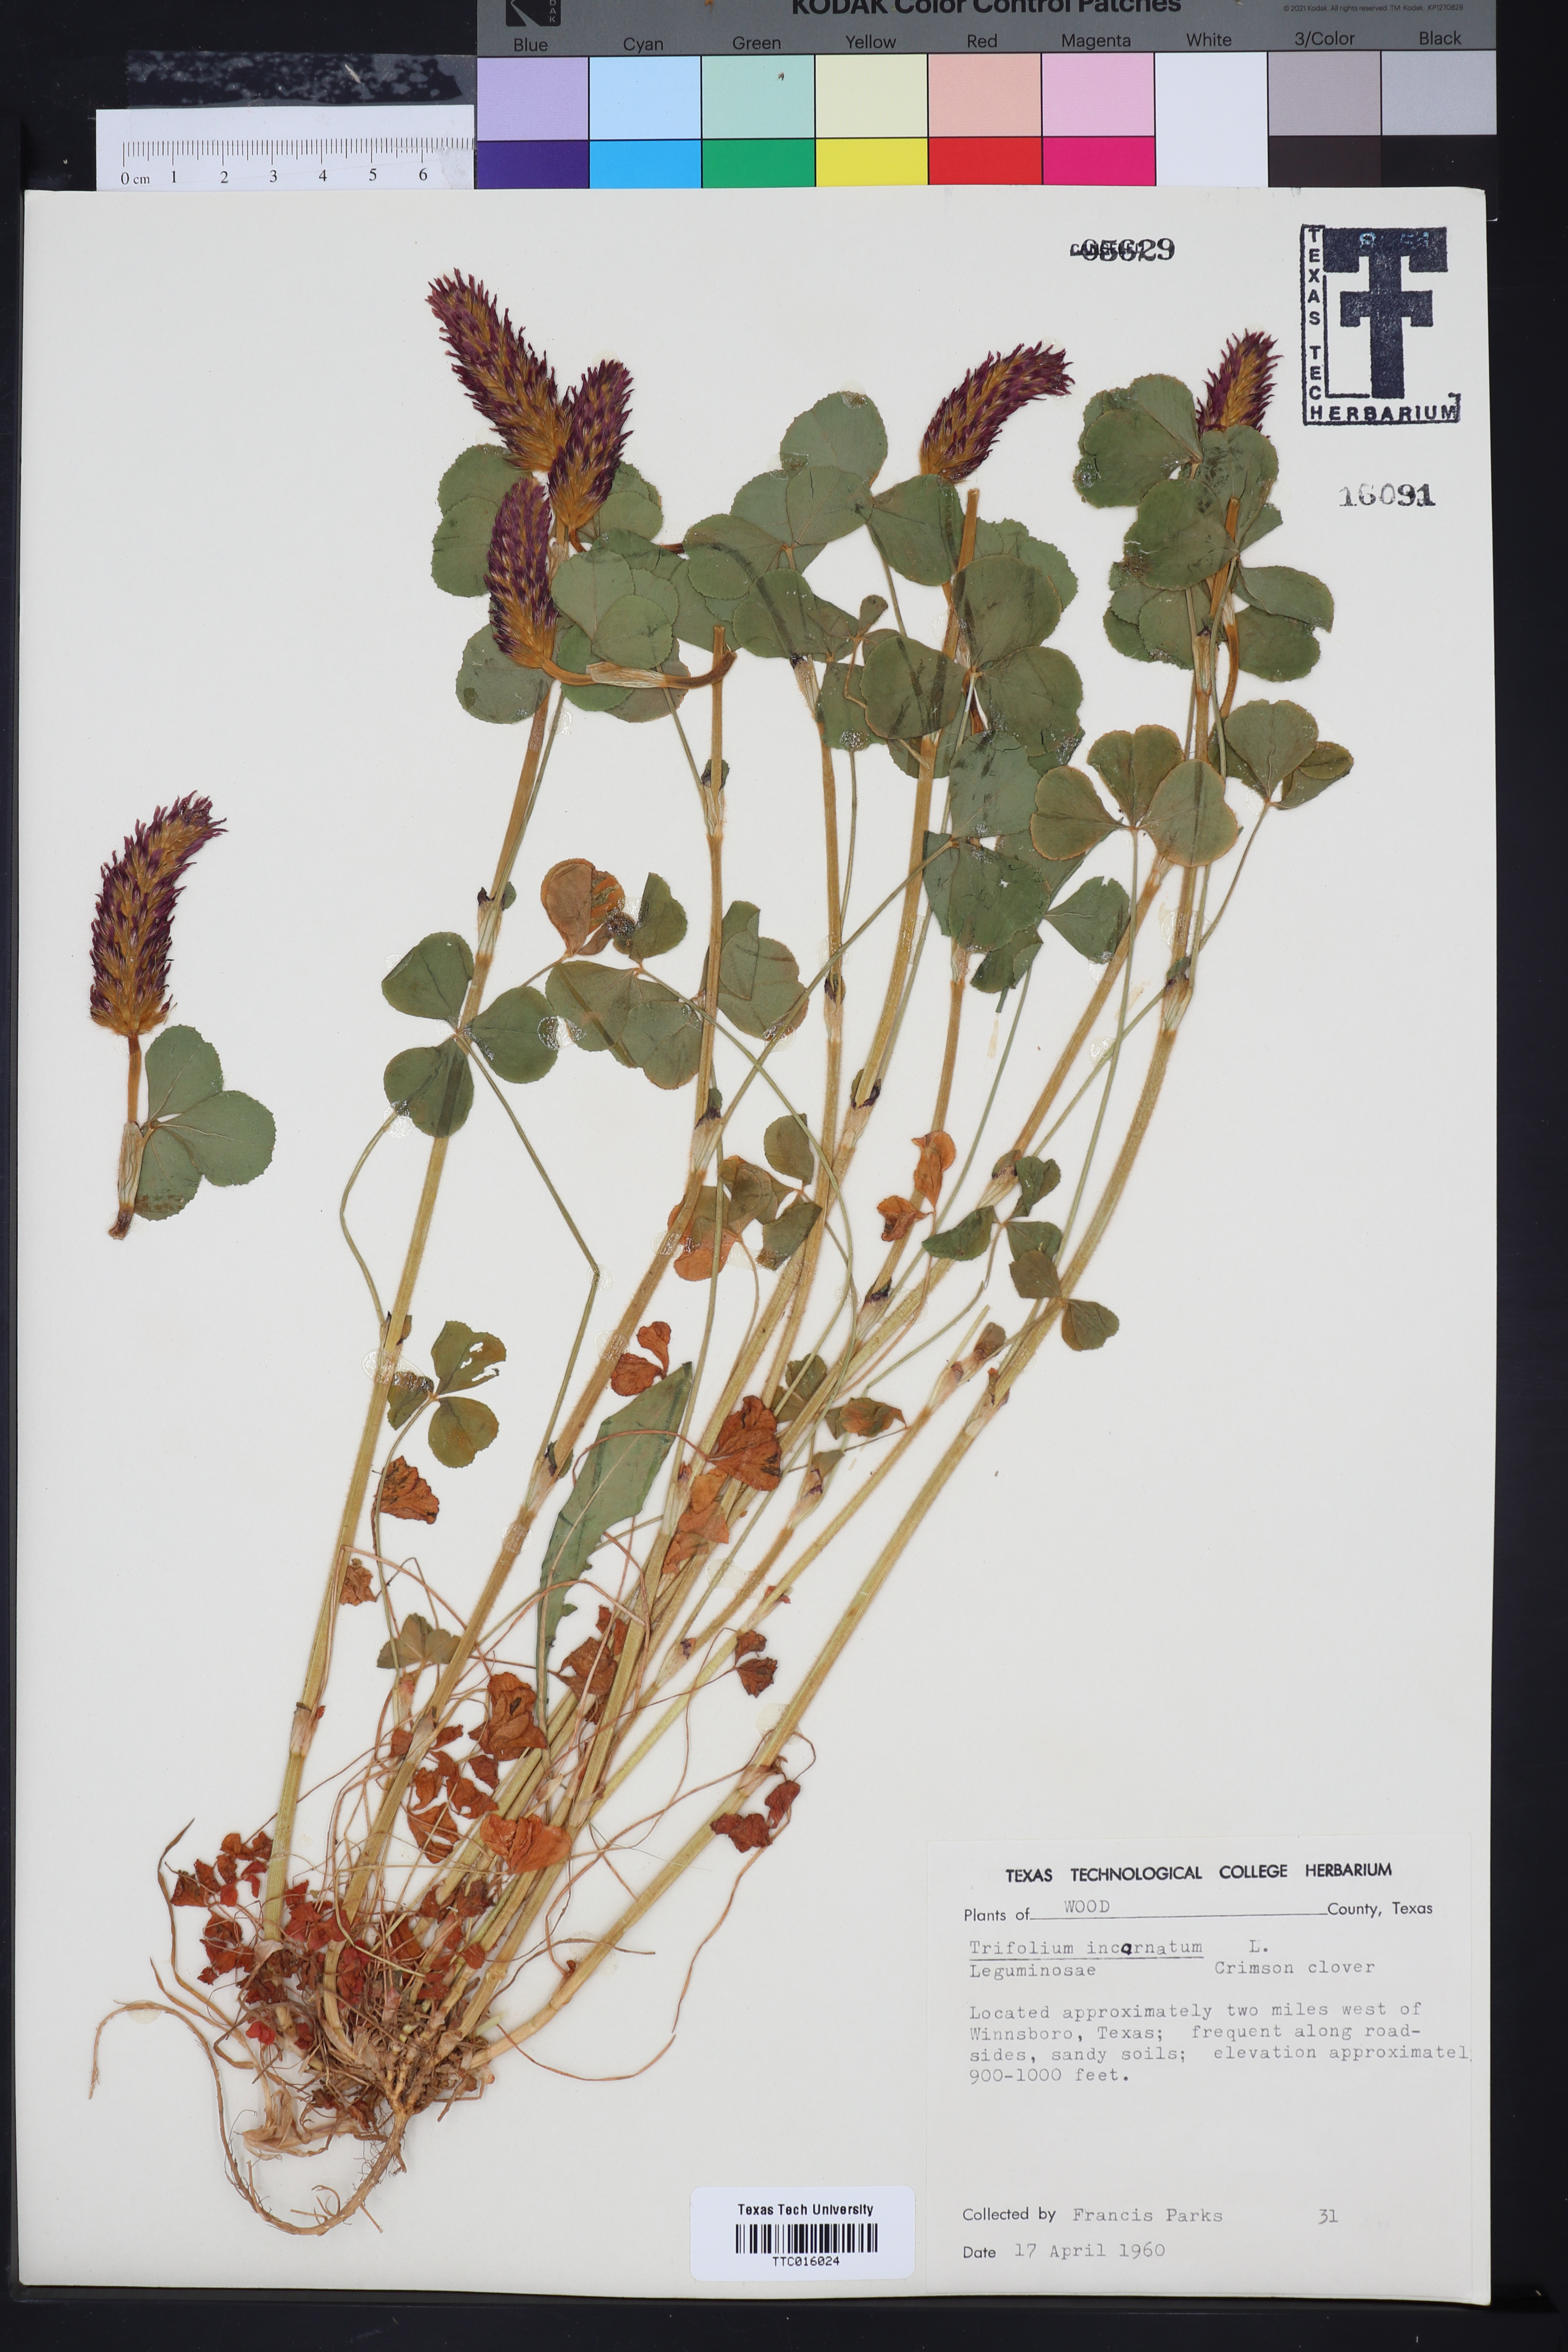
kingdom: Plantae
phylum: Tracheophyta
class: Magnoliopsida
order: Fabales
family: Fabaceae
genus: Trifolium
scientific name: Trifolium incarnatum
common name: Crimson clover
